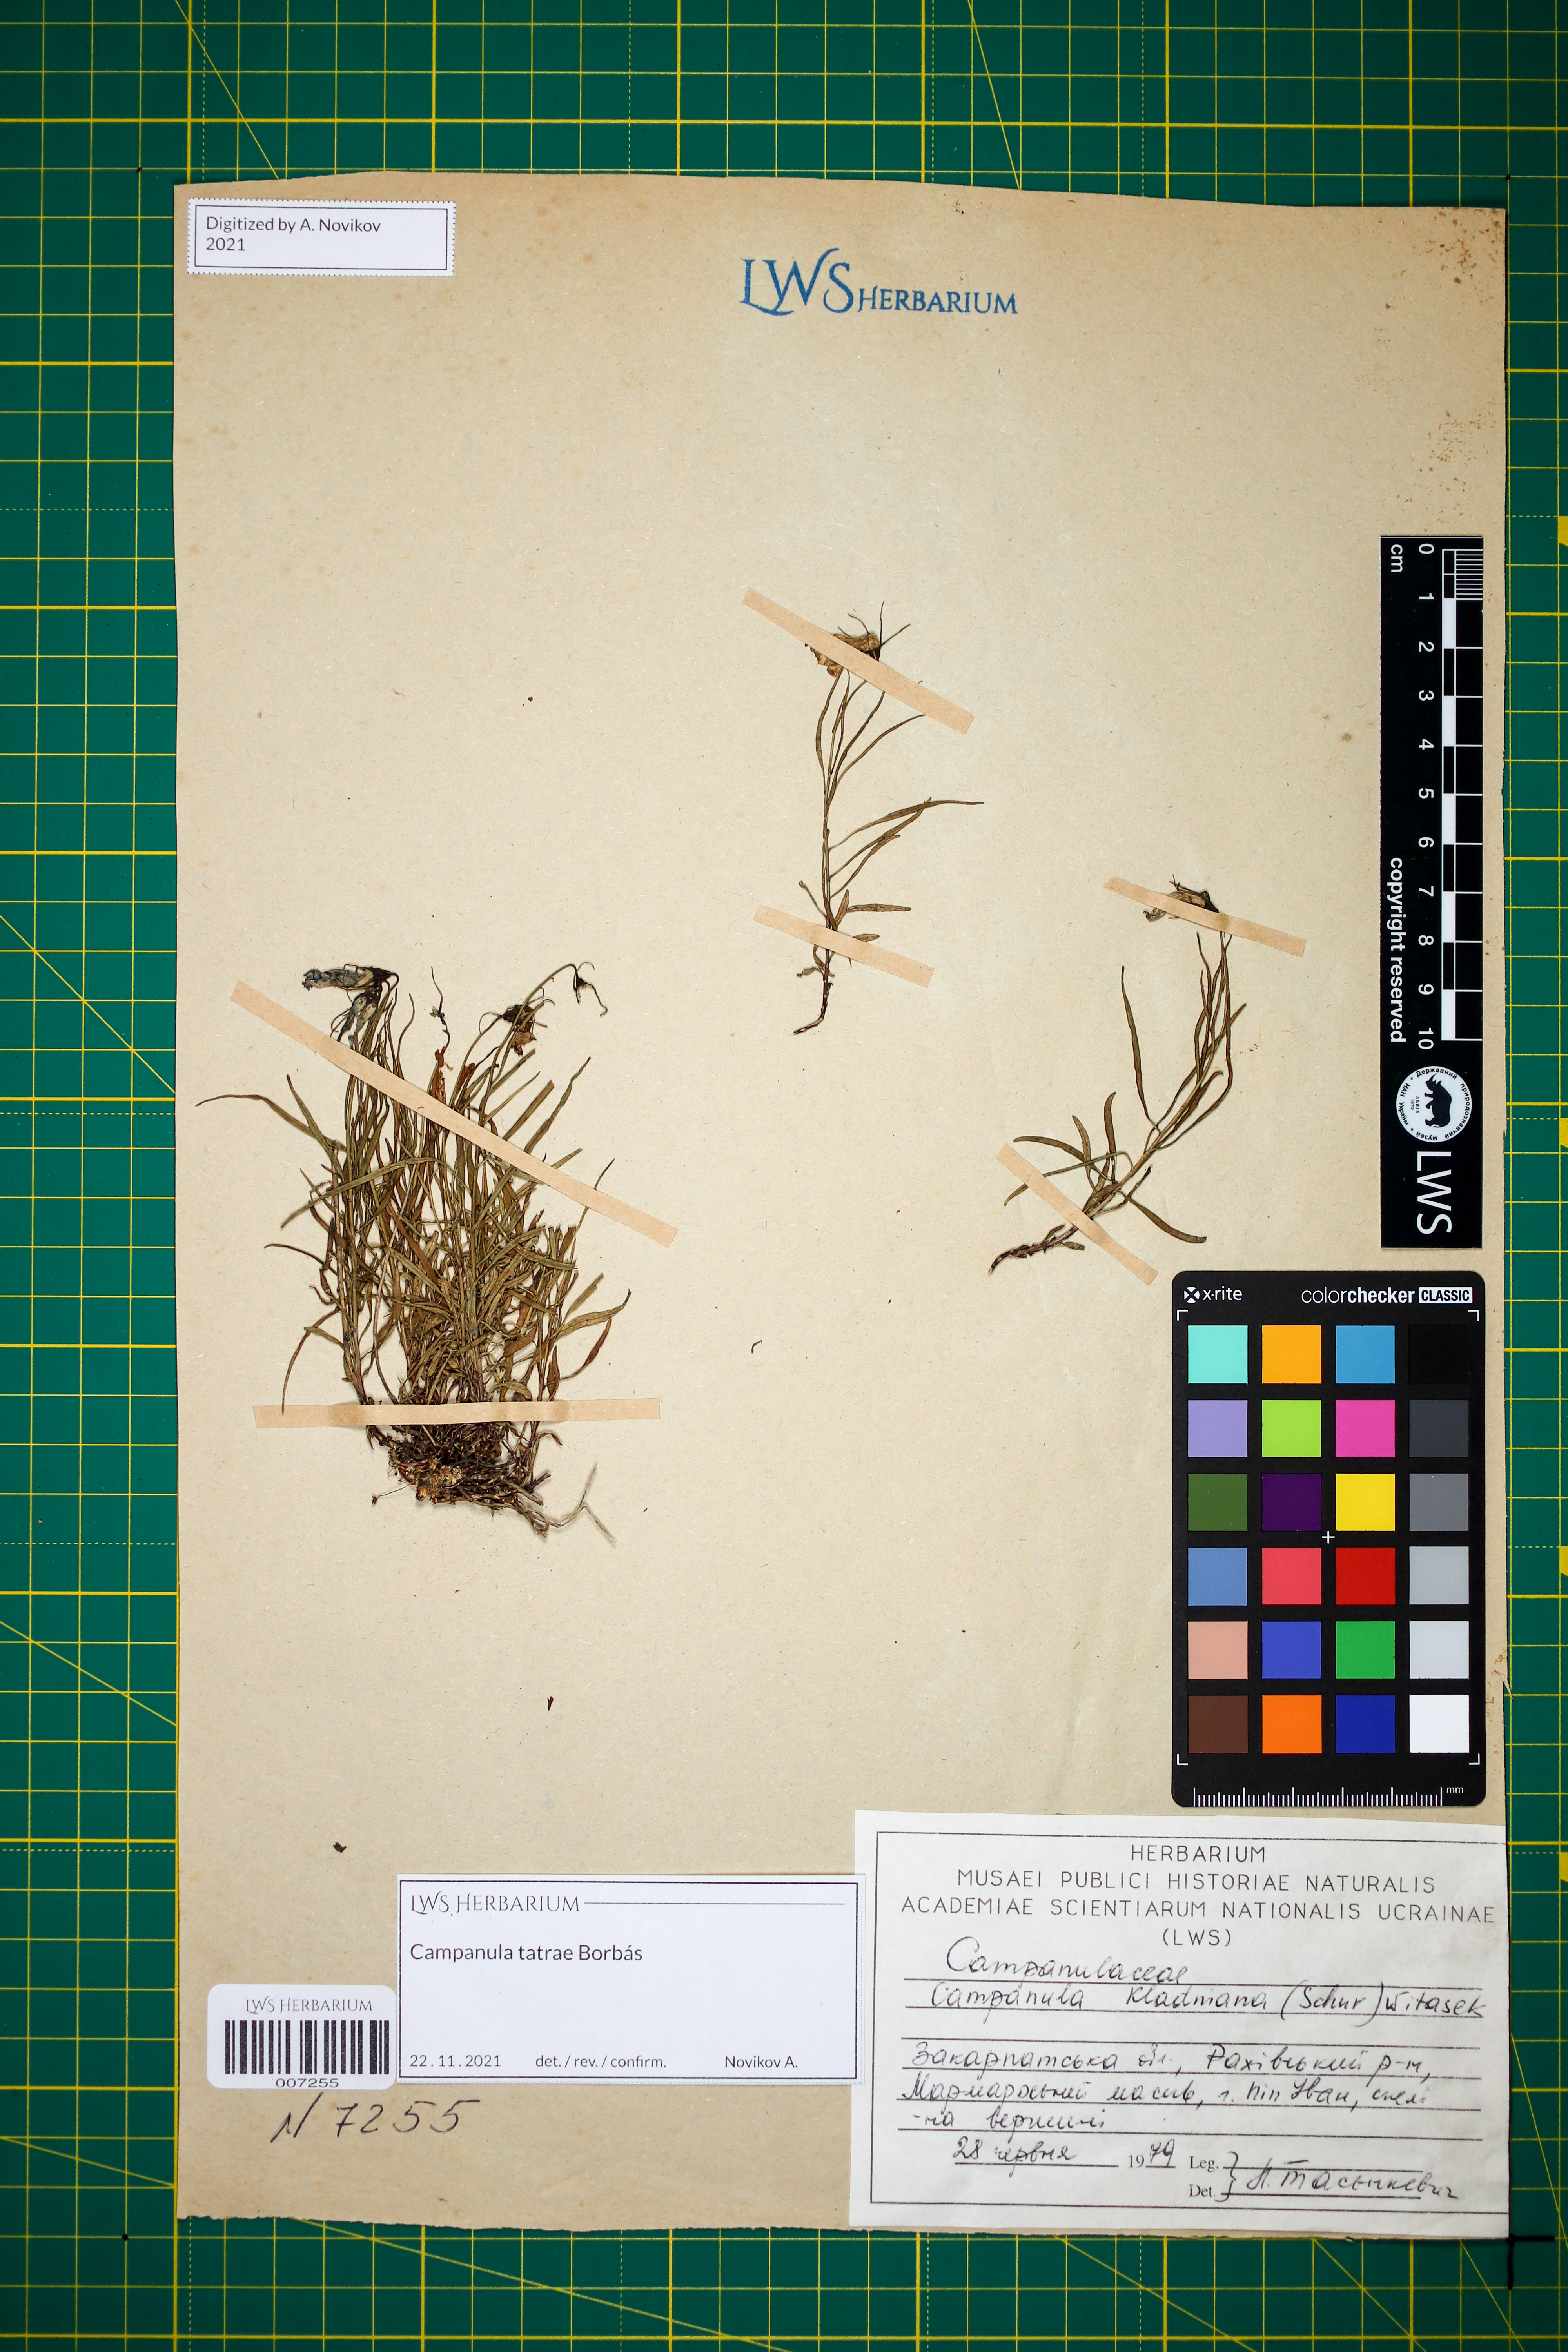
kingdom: Plantae
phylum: Tracheophyta
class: Magnoliopsida
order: Asterales
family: Campanulaceae
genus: Campanula
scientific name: Campanula kladniana
